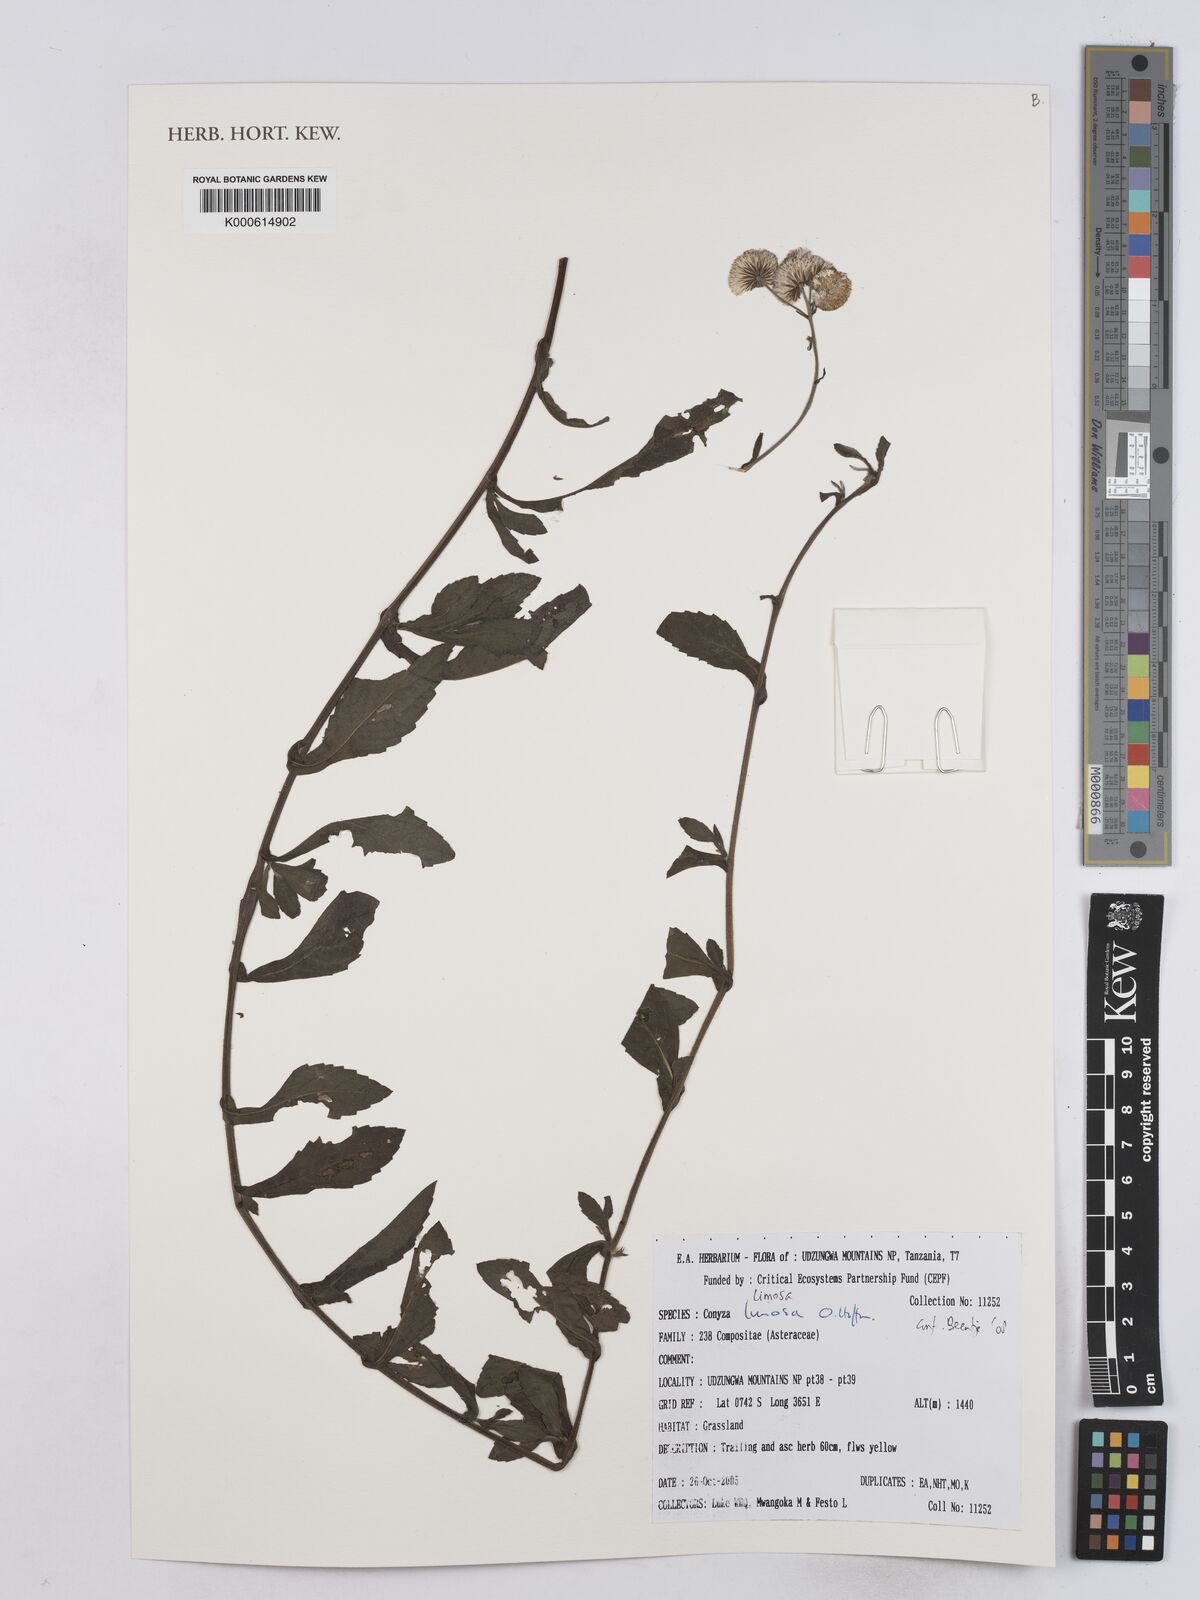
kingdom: Plantae
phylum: Tracheophyta
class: Magnoliopsida
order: Asterales
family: Asteraceae
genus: Conyza
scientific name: Conyza limosa
